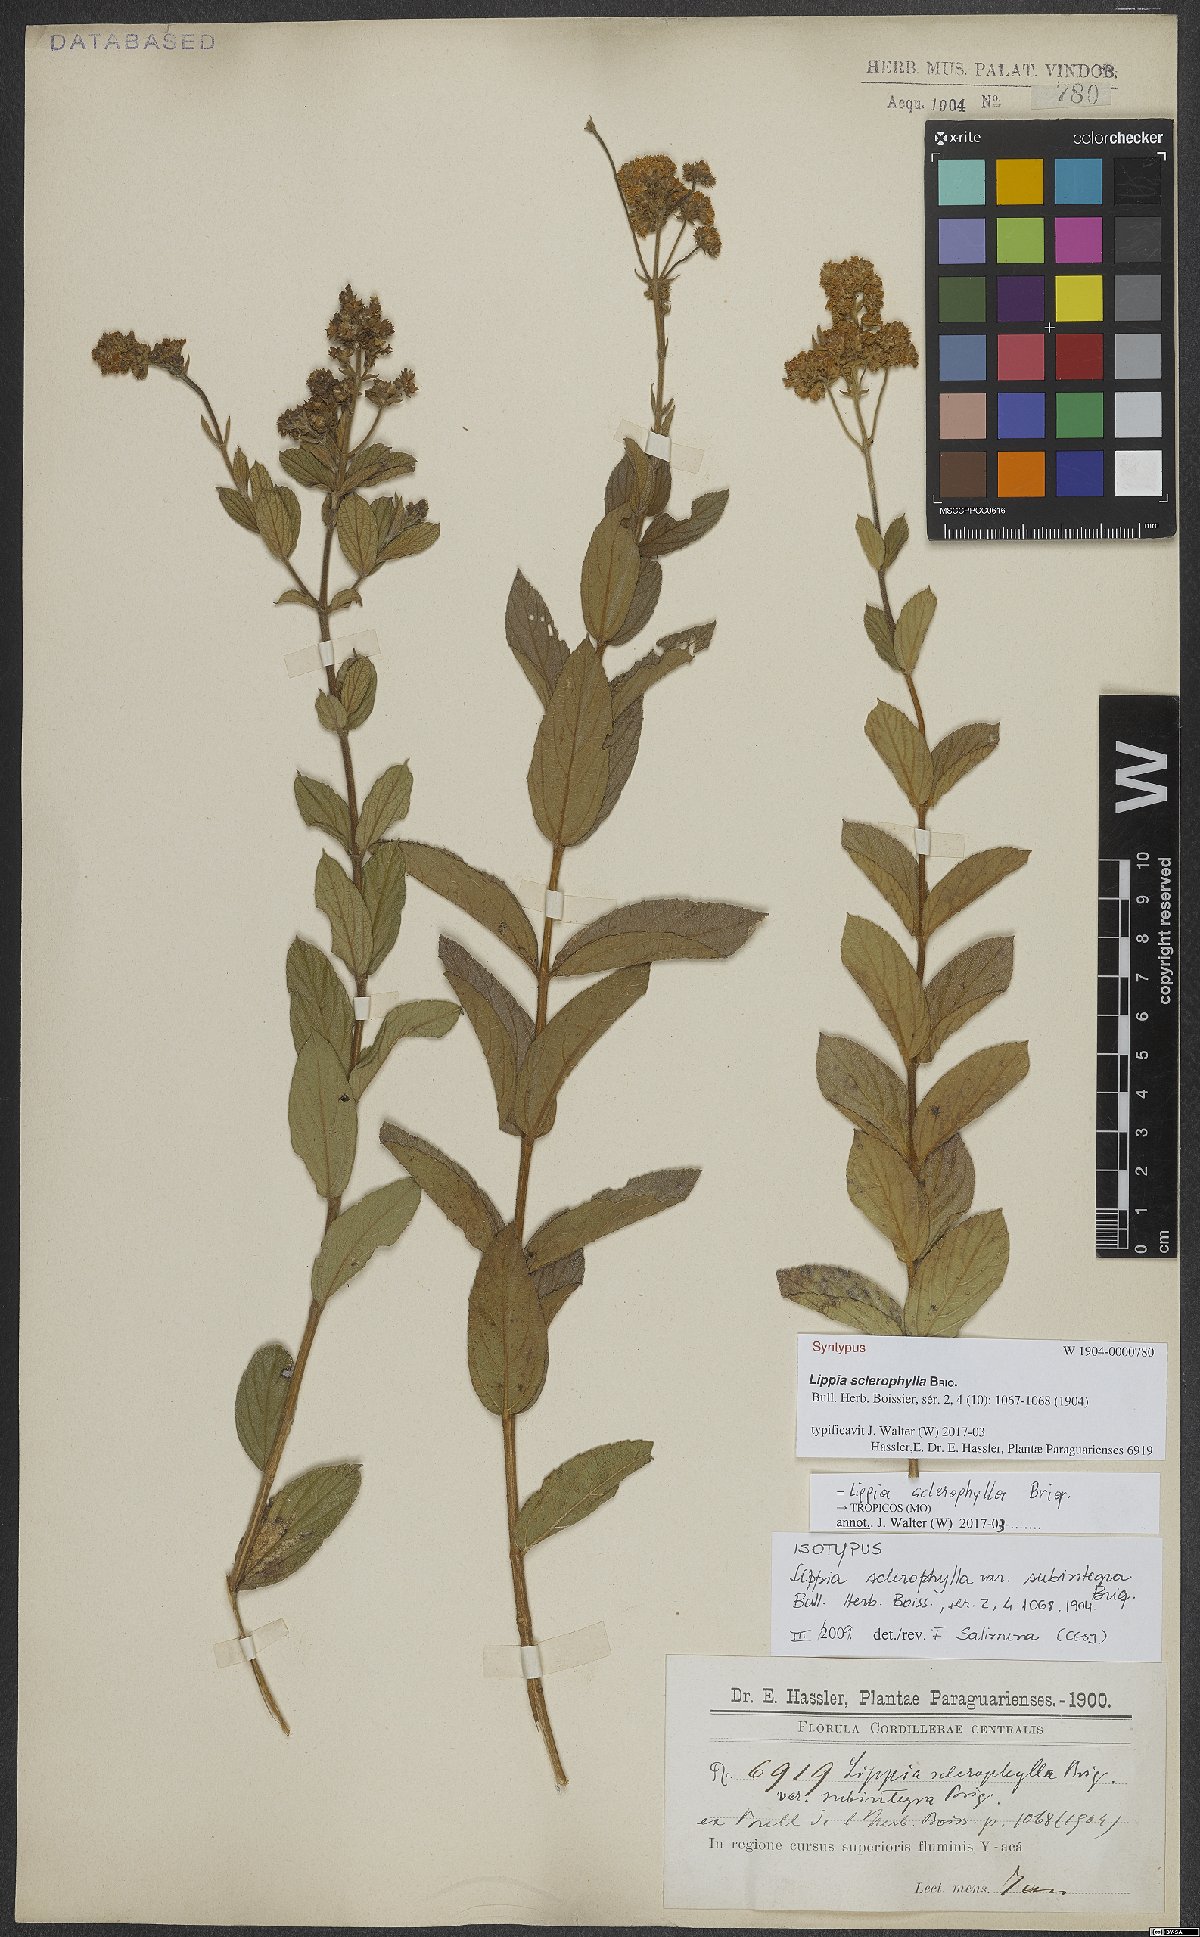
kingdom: Plantae
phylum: Tracheophyta
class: Magnoliopsida
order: Lamiales
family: Verbenaceae
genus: Lippia
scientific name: Lippia sclerophylla
